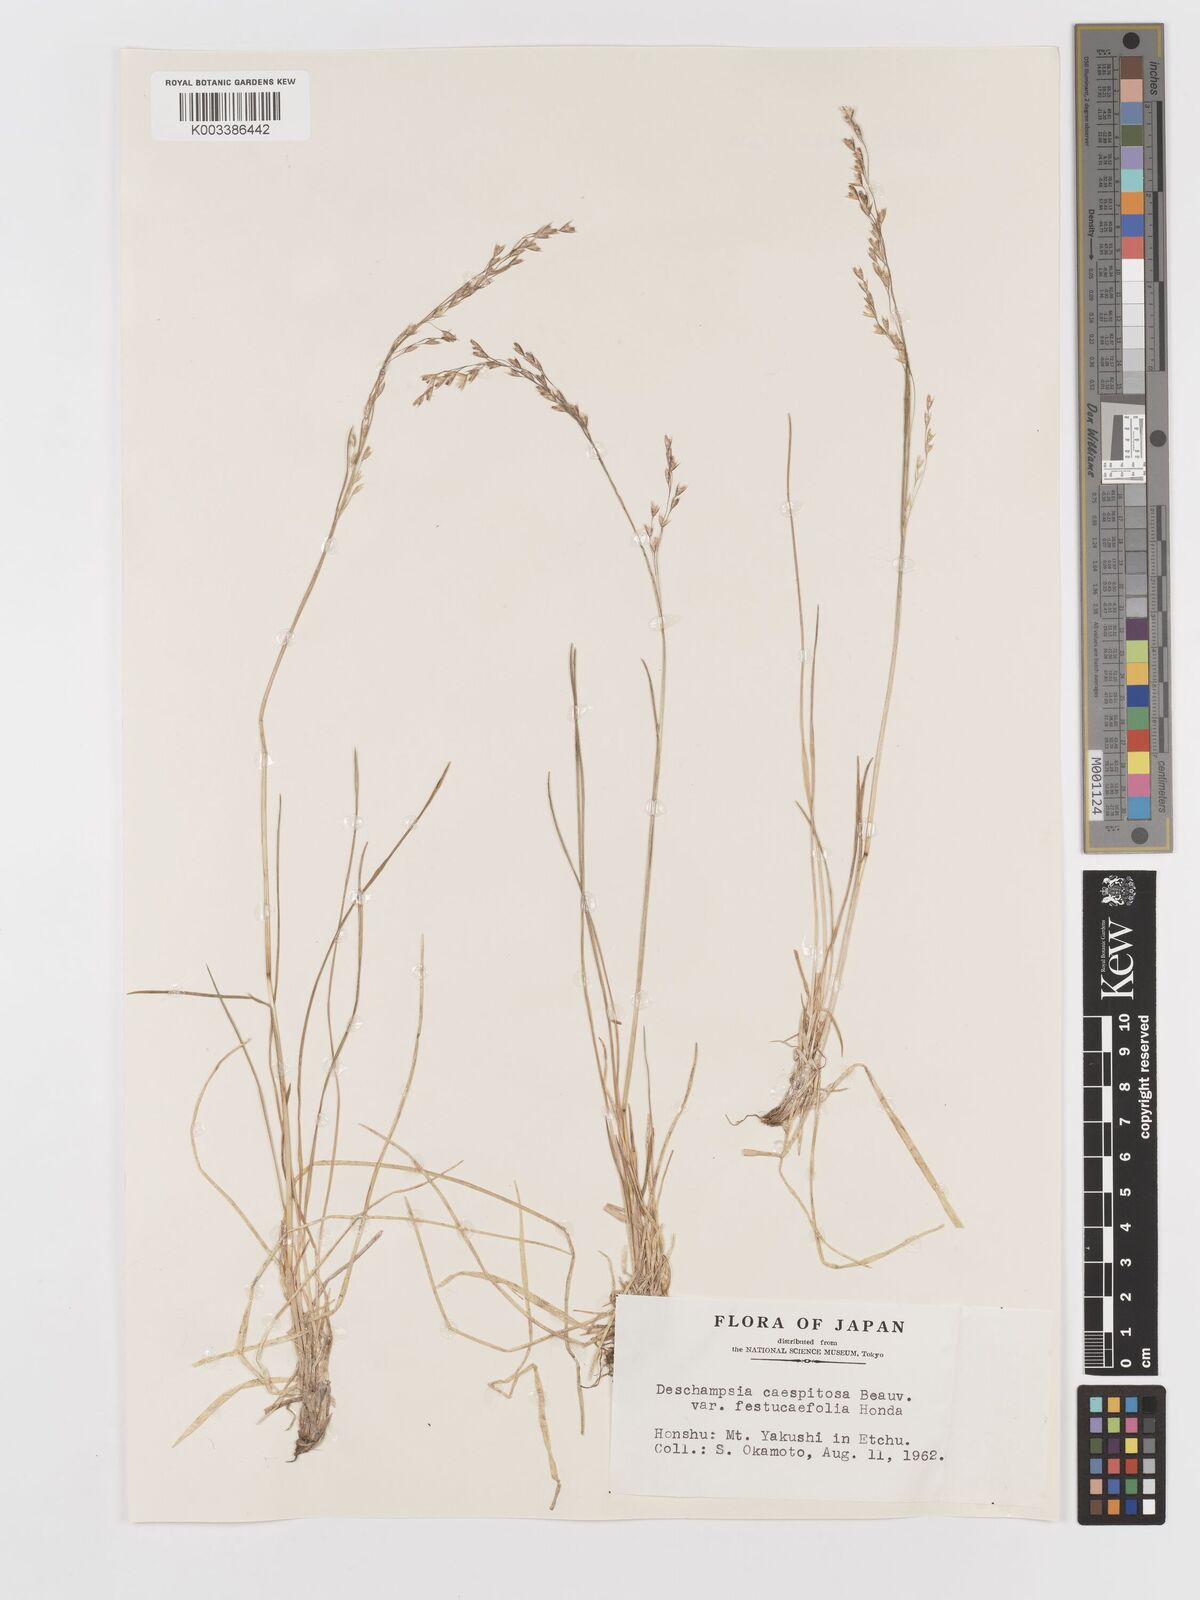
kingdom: Plantae
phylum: Tracheophyta
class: Liliopsida
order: Poales
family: Poaceae
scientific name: Poaceae
